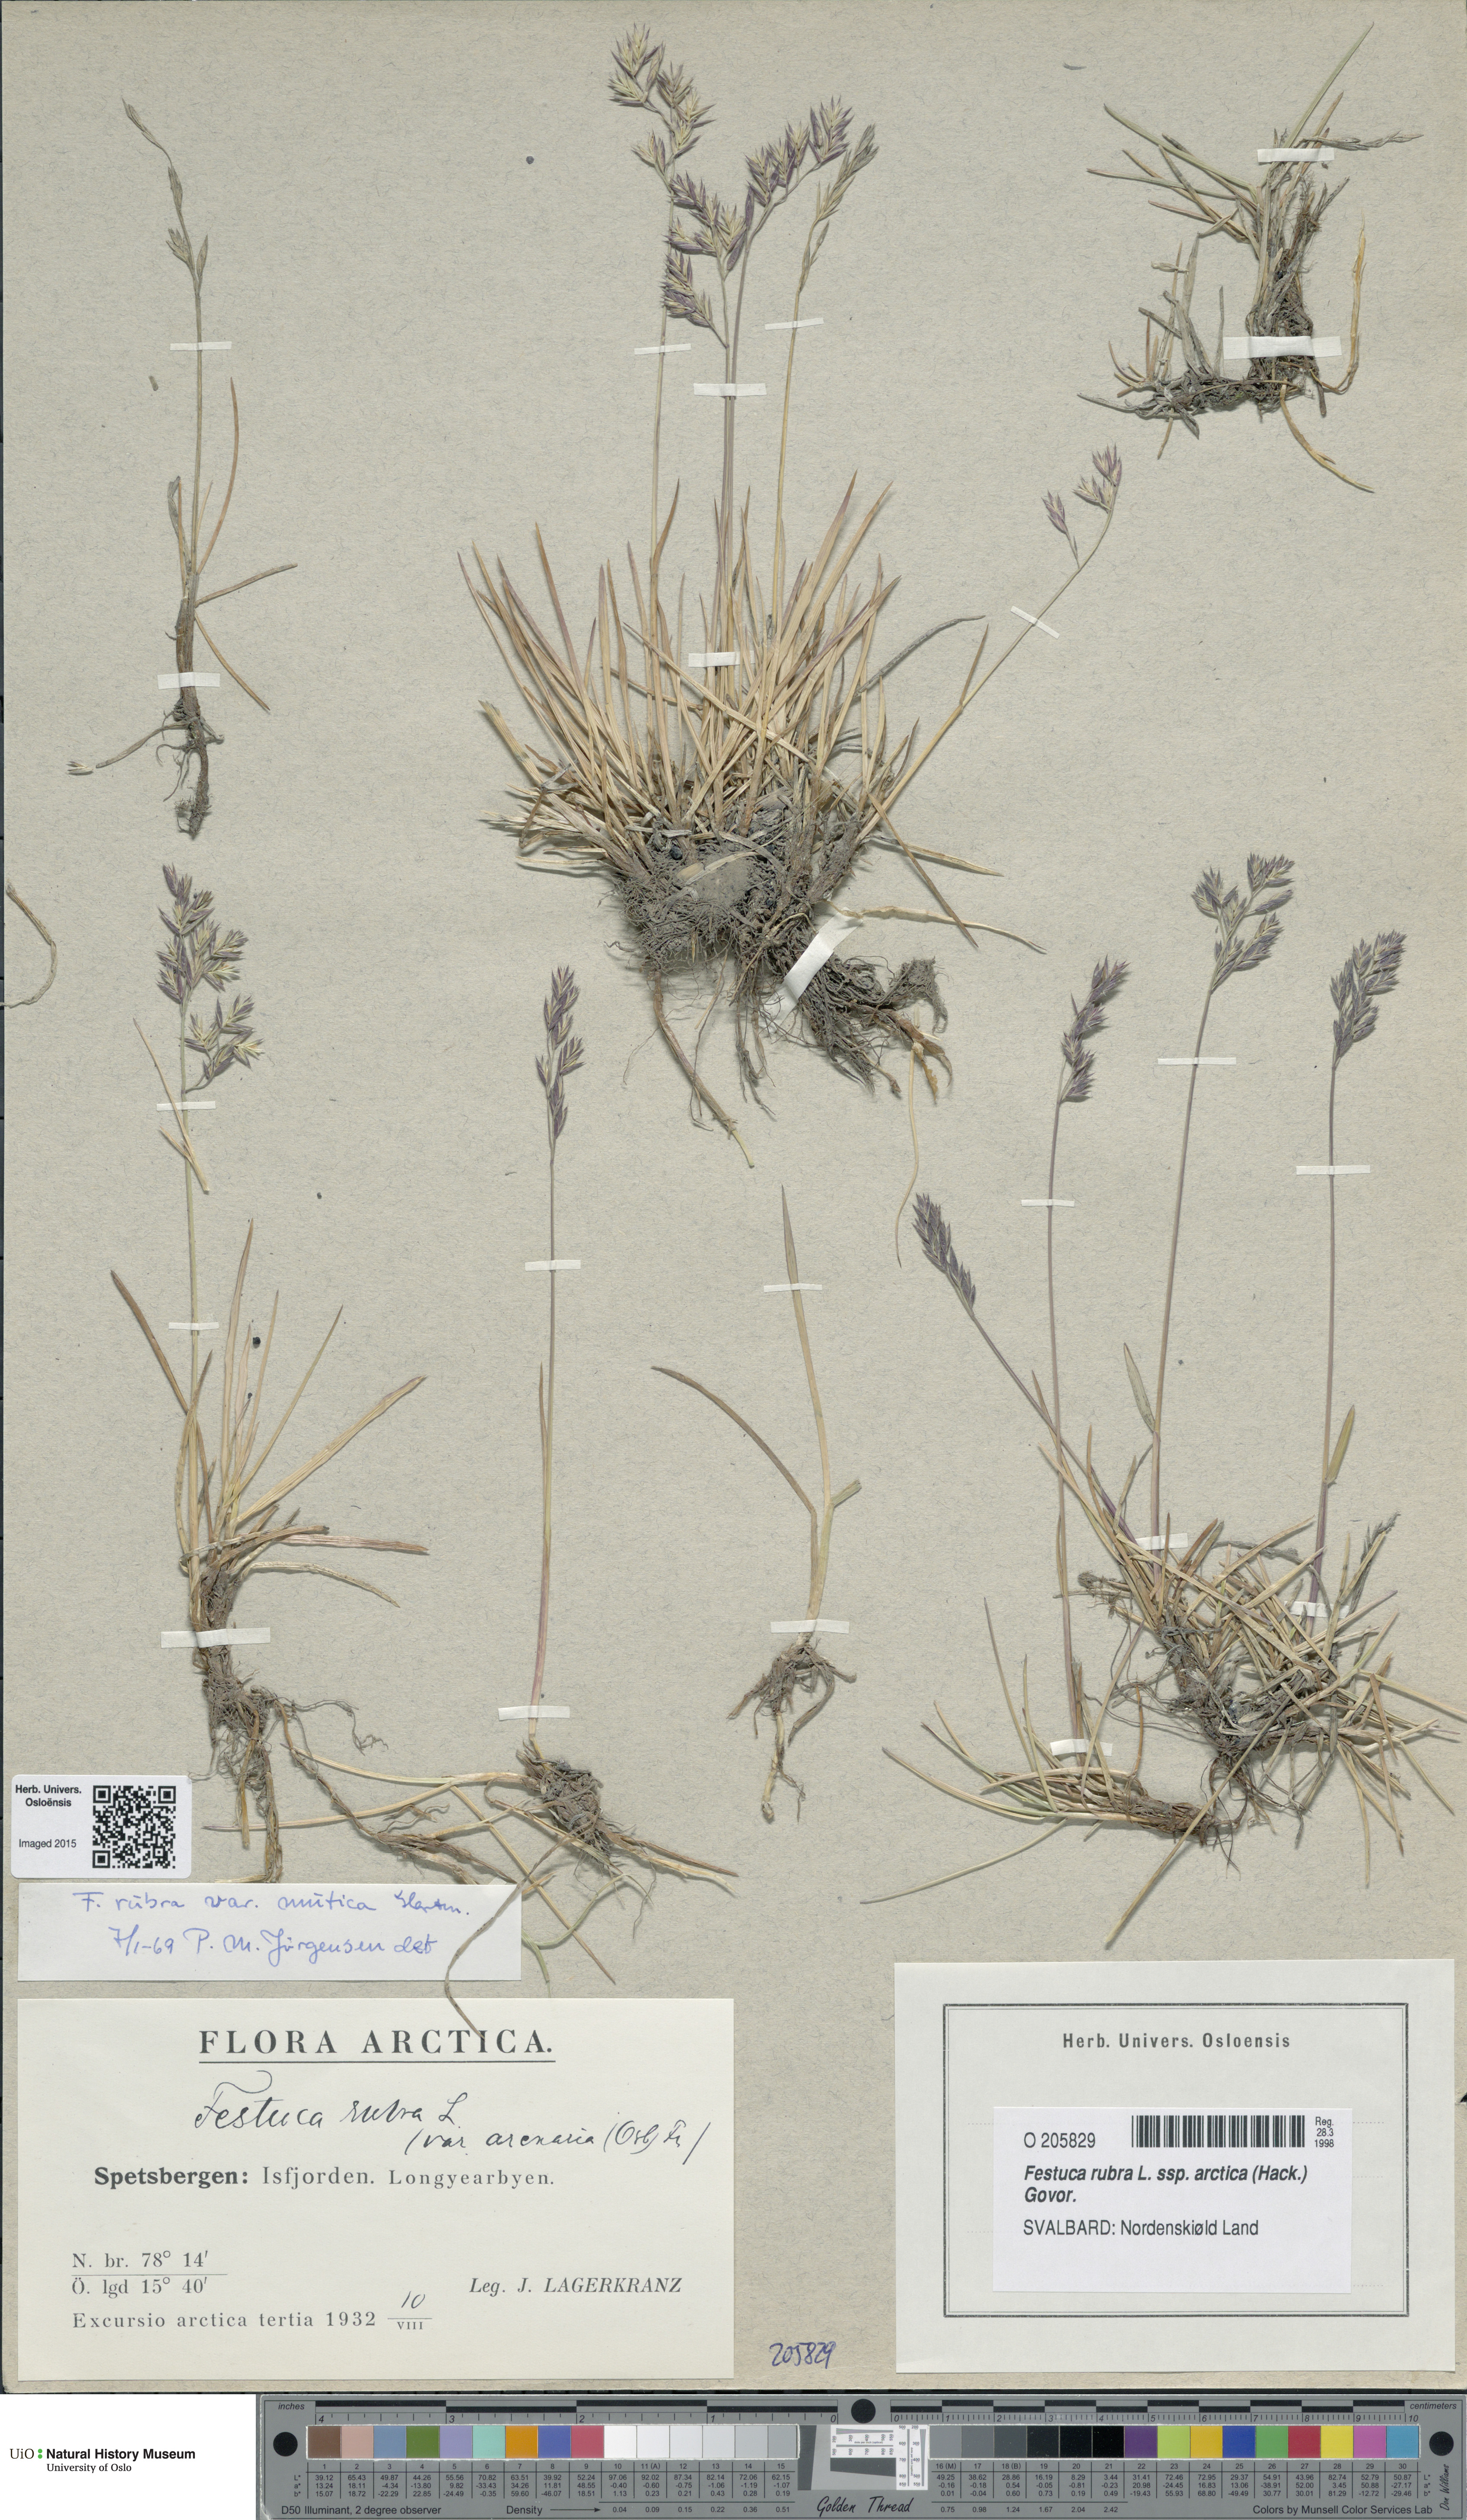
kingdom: Plantae
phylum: Tracheophyta
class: Liliopsida
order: Poales
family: Poaceae
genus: Festuca
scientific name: Festuca richardsonii
